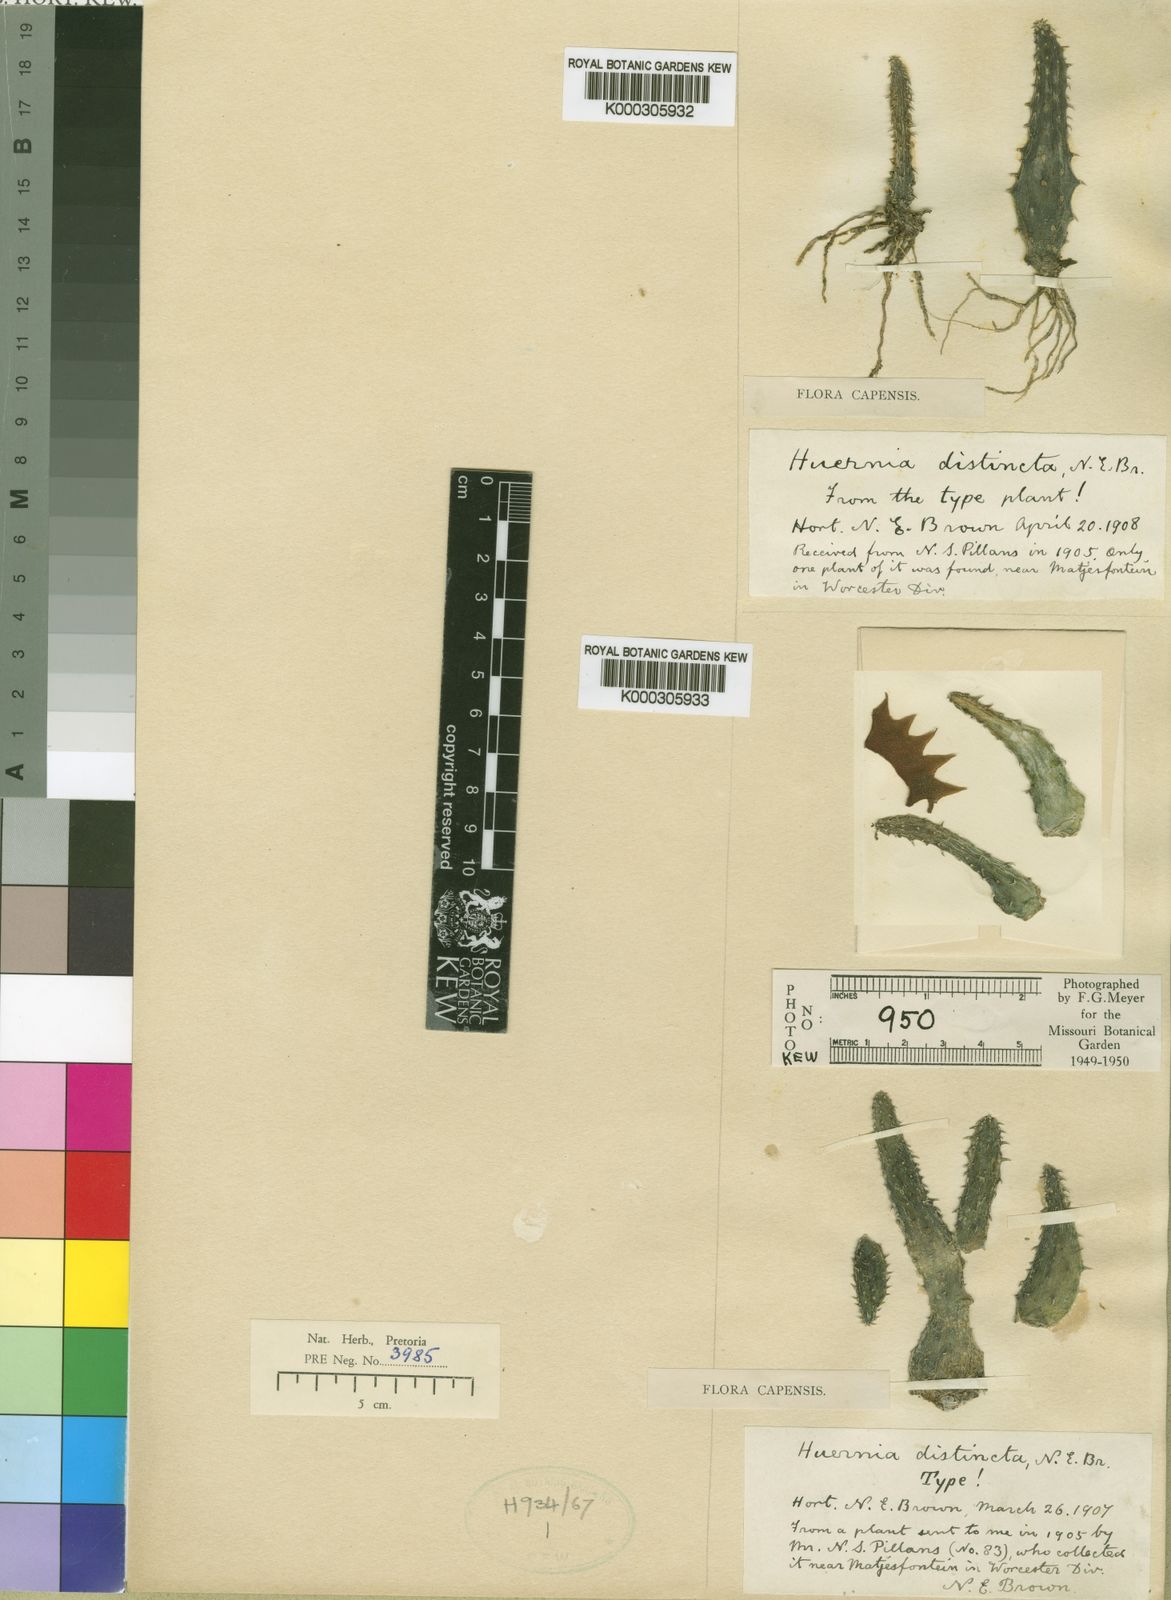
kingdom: Plantae
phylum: Tracheophyta
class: Magnoliopsida
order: Gentianales
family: Apocynaceae
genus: Huernia
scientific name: Huernia distincta
